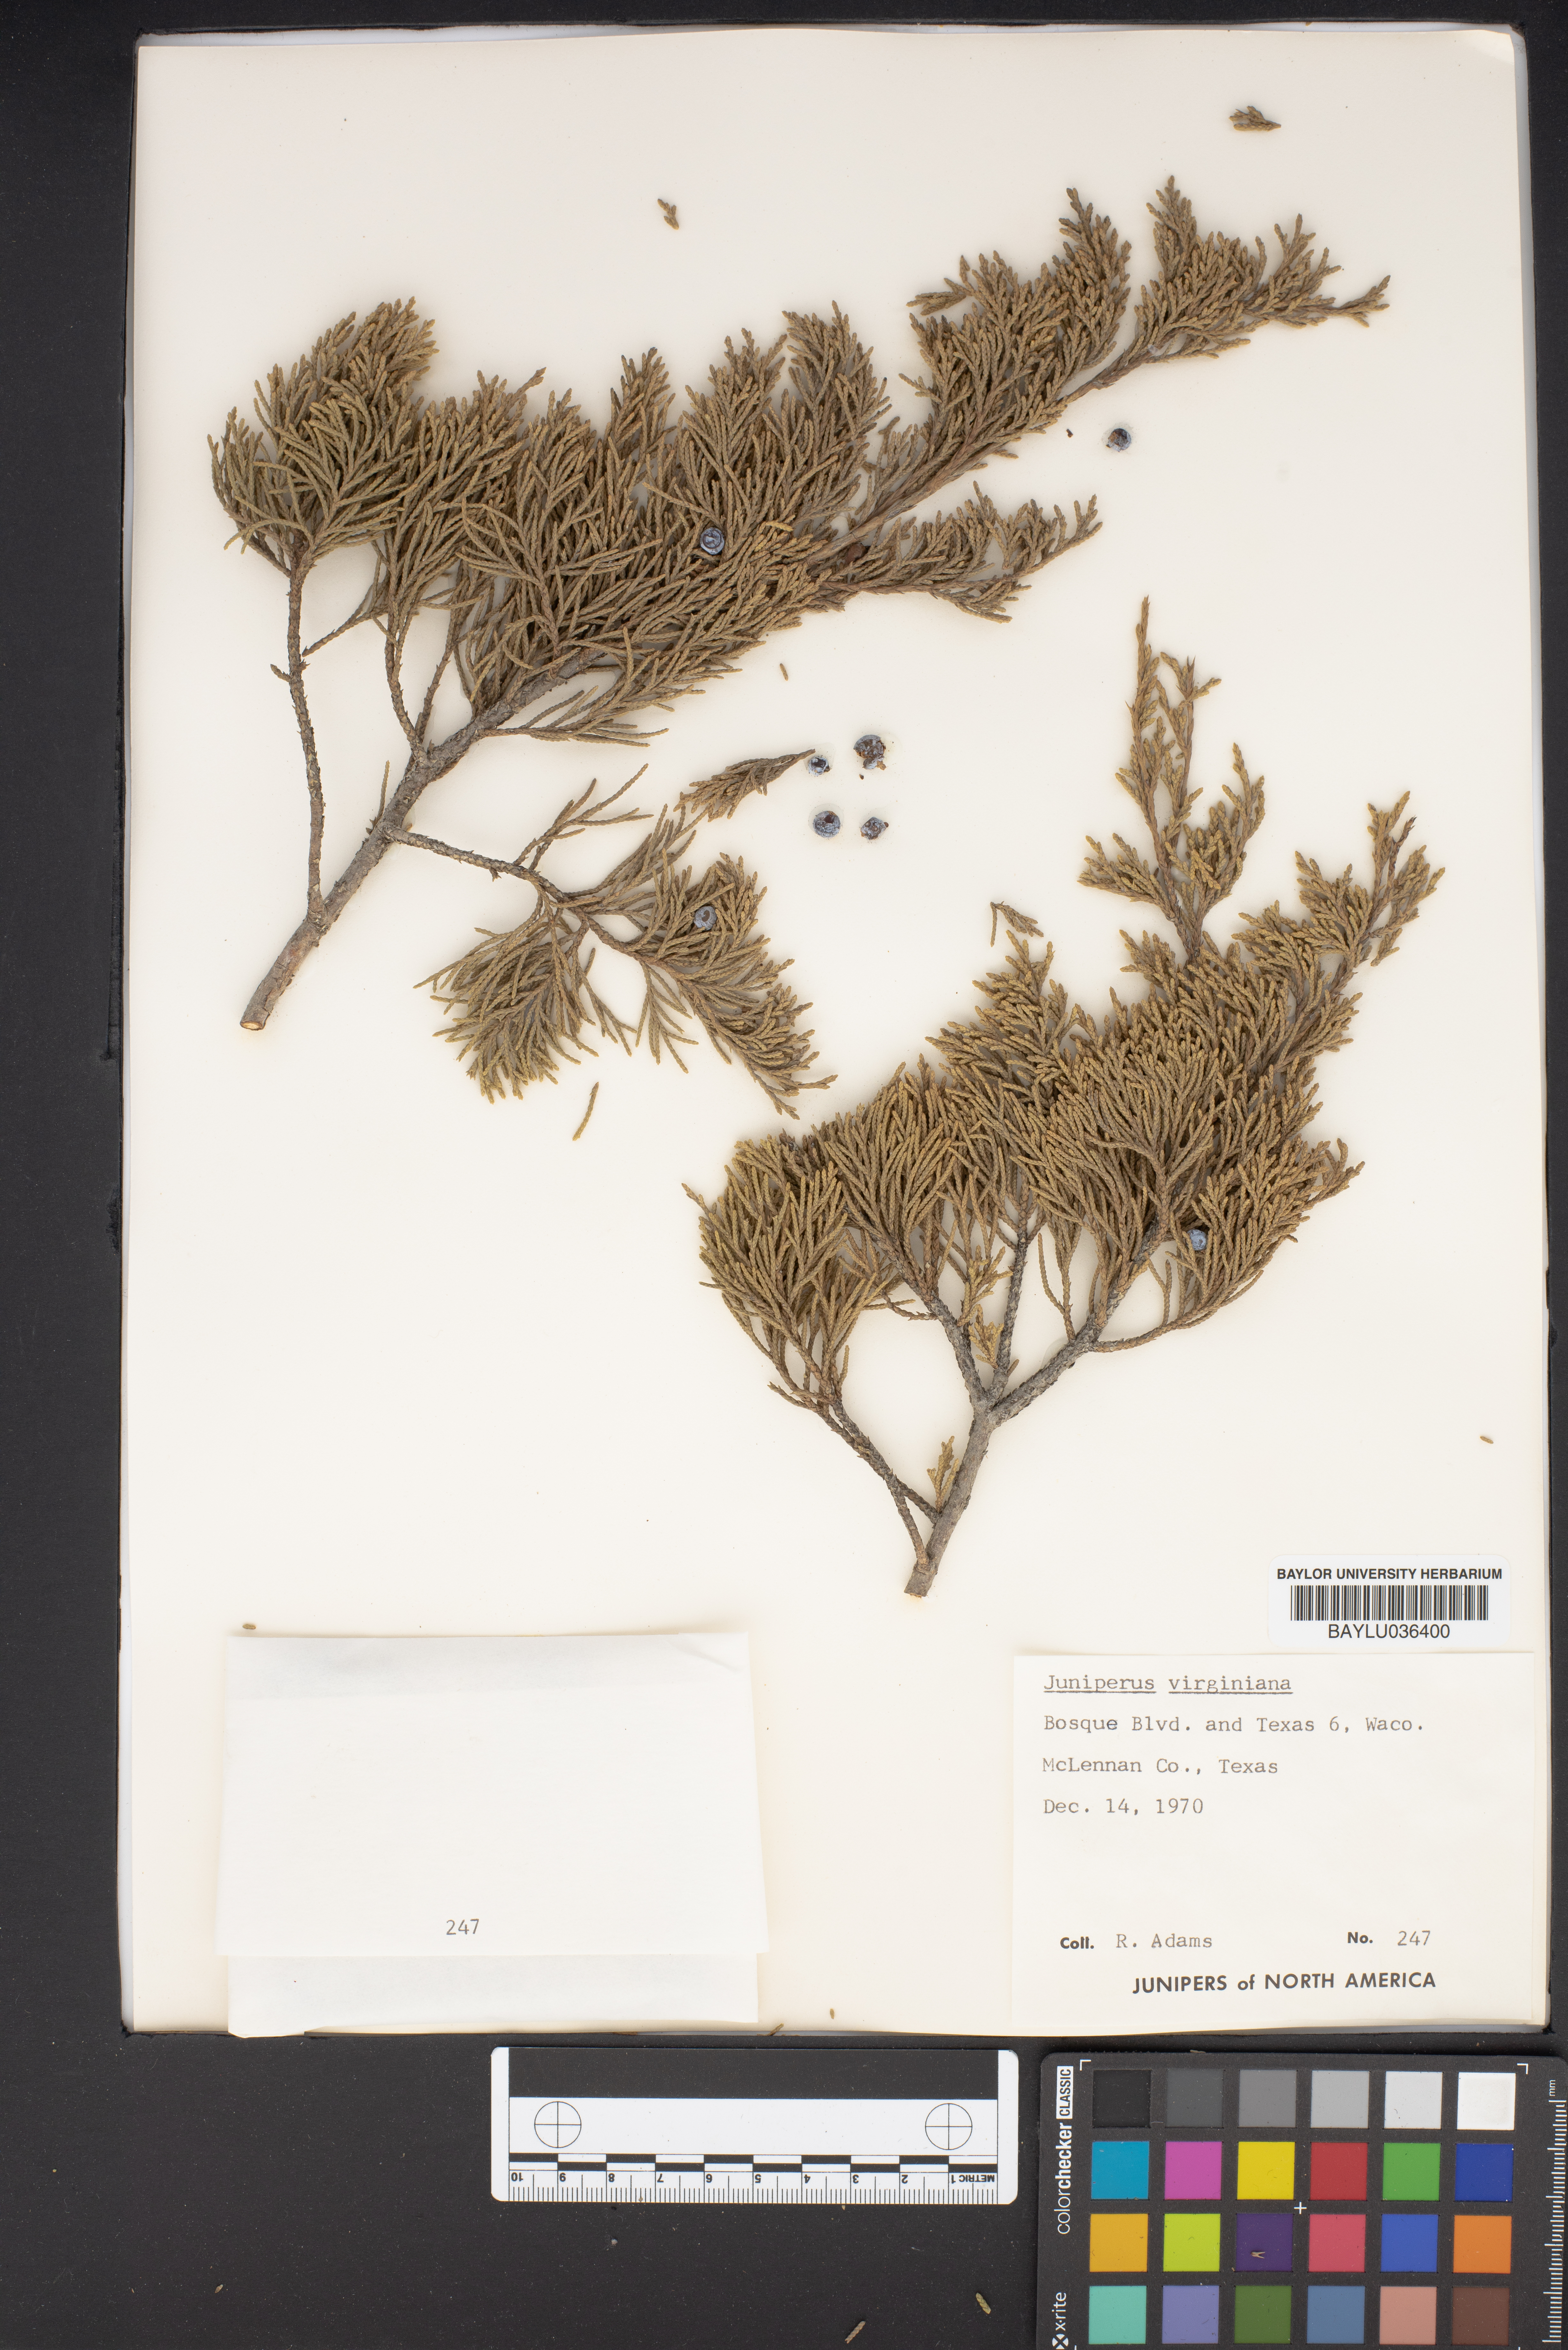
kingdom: Plantae
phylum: Tracheophyta
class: Pinopsida
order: Pinales
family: Cupressaceae
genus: Juniperus
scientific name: Juniperus virginiana
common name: Red juniper
